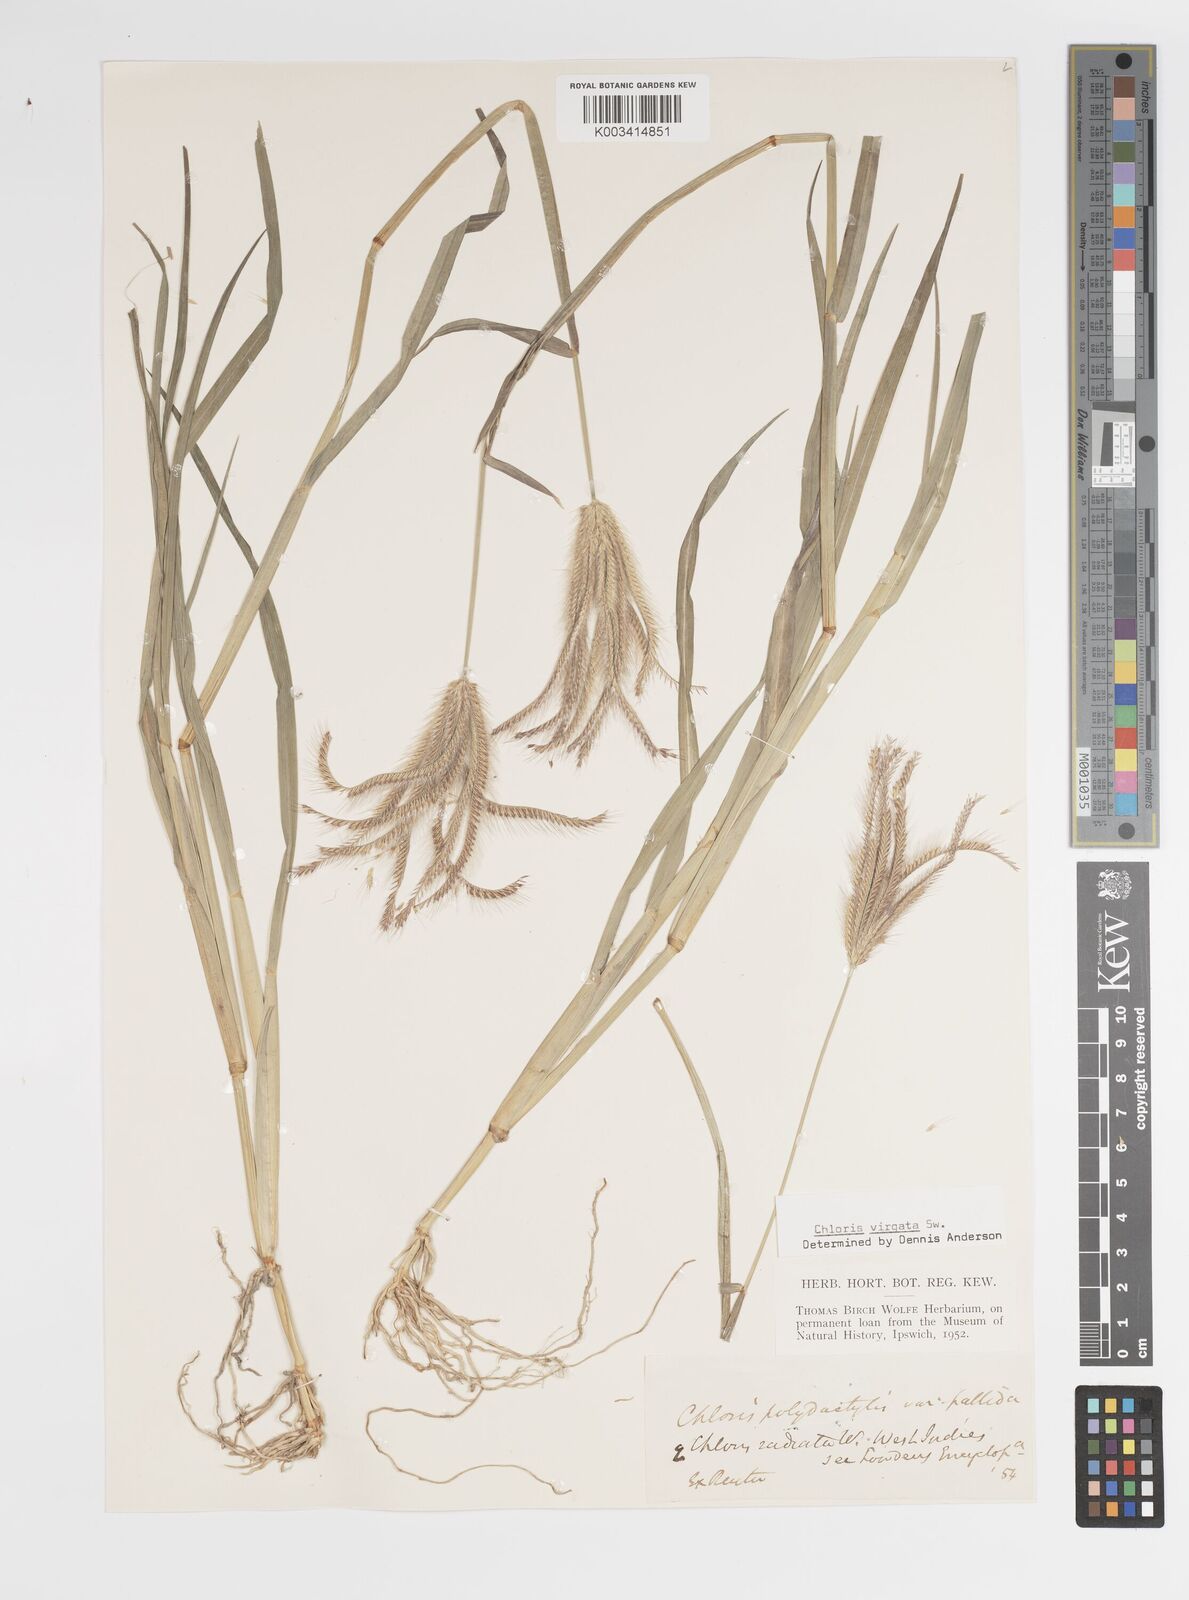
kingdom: Plantae
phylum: Tracheophyta
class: Liliopsida
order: Poales
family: Poaceae
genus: Chloris
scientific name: Chloris virgata
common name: Feathery rhodes-grass
